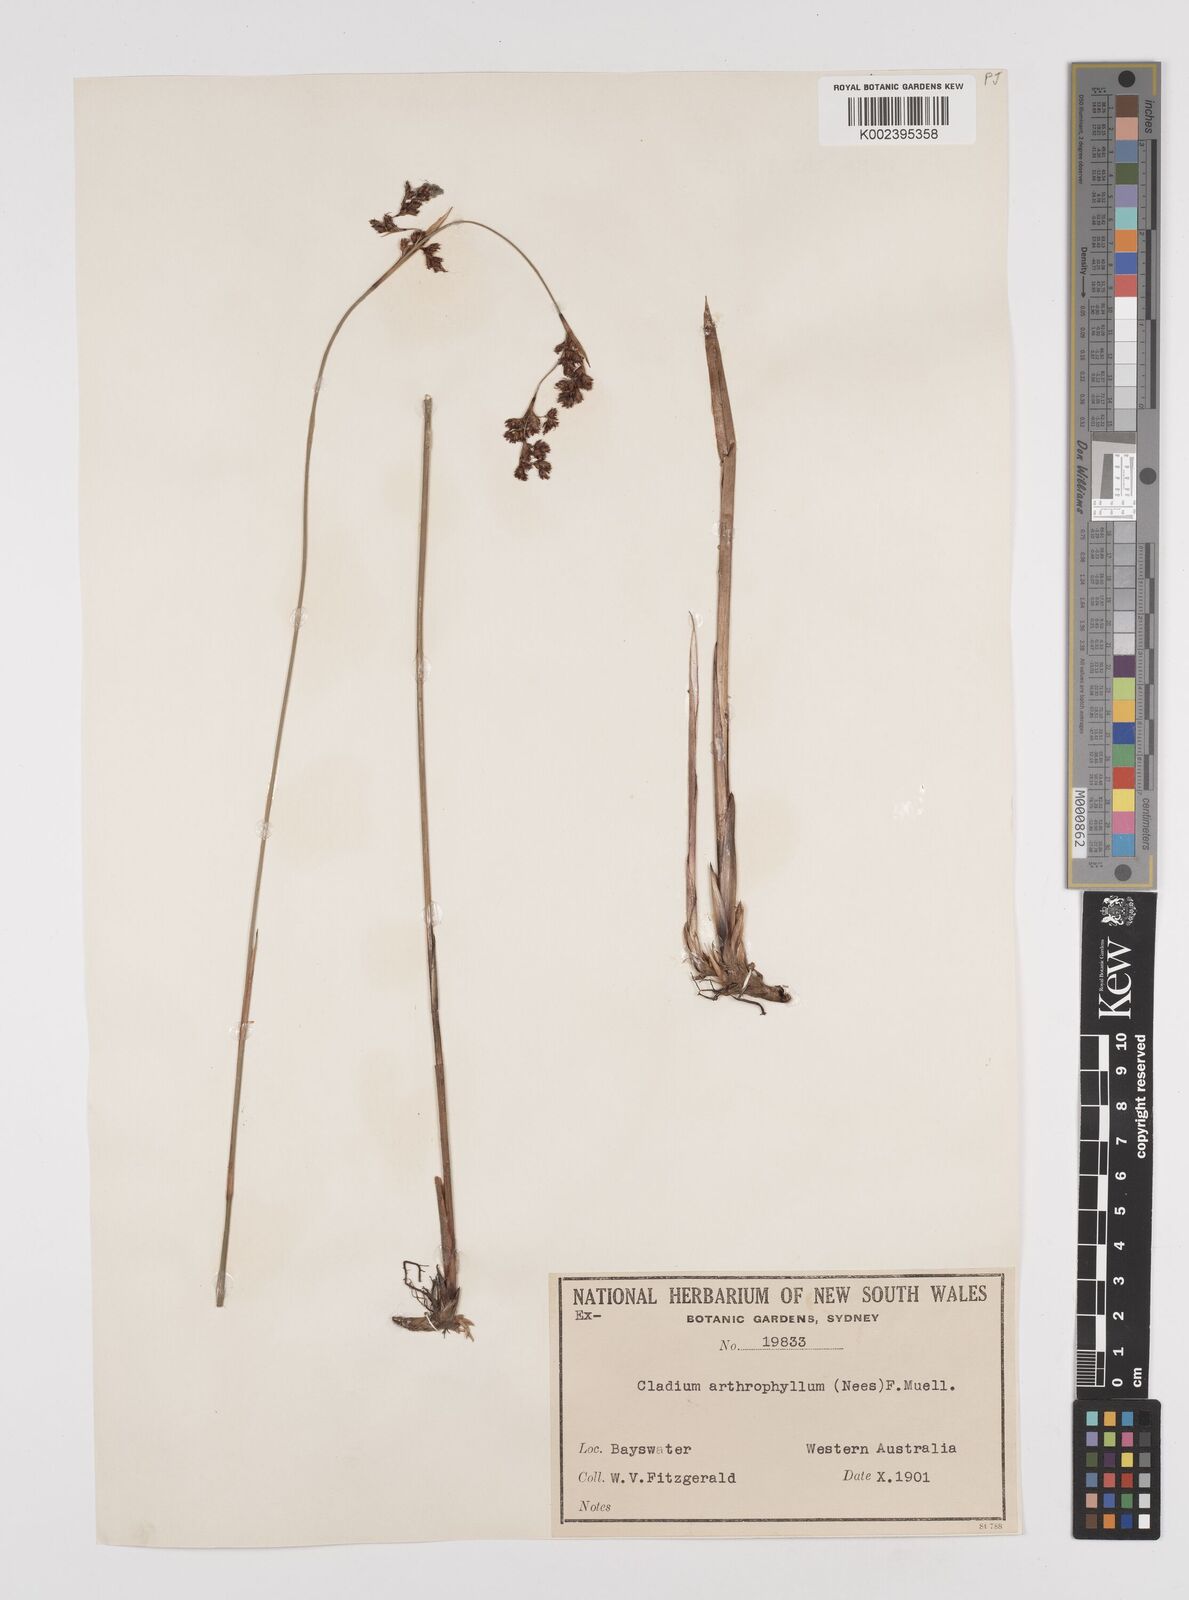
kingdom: Plantae
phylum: Tracheophyta
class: Liliopsida
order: Poales
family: Cyperaceae
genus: Machaerina
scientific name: Machaerina arthrophylla
